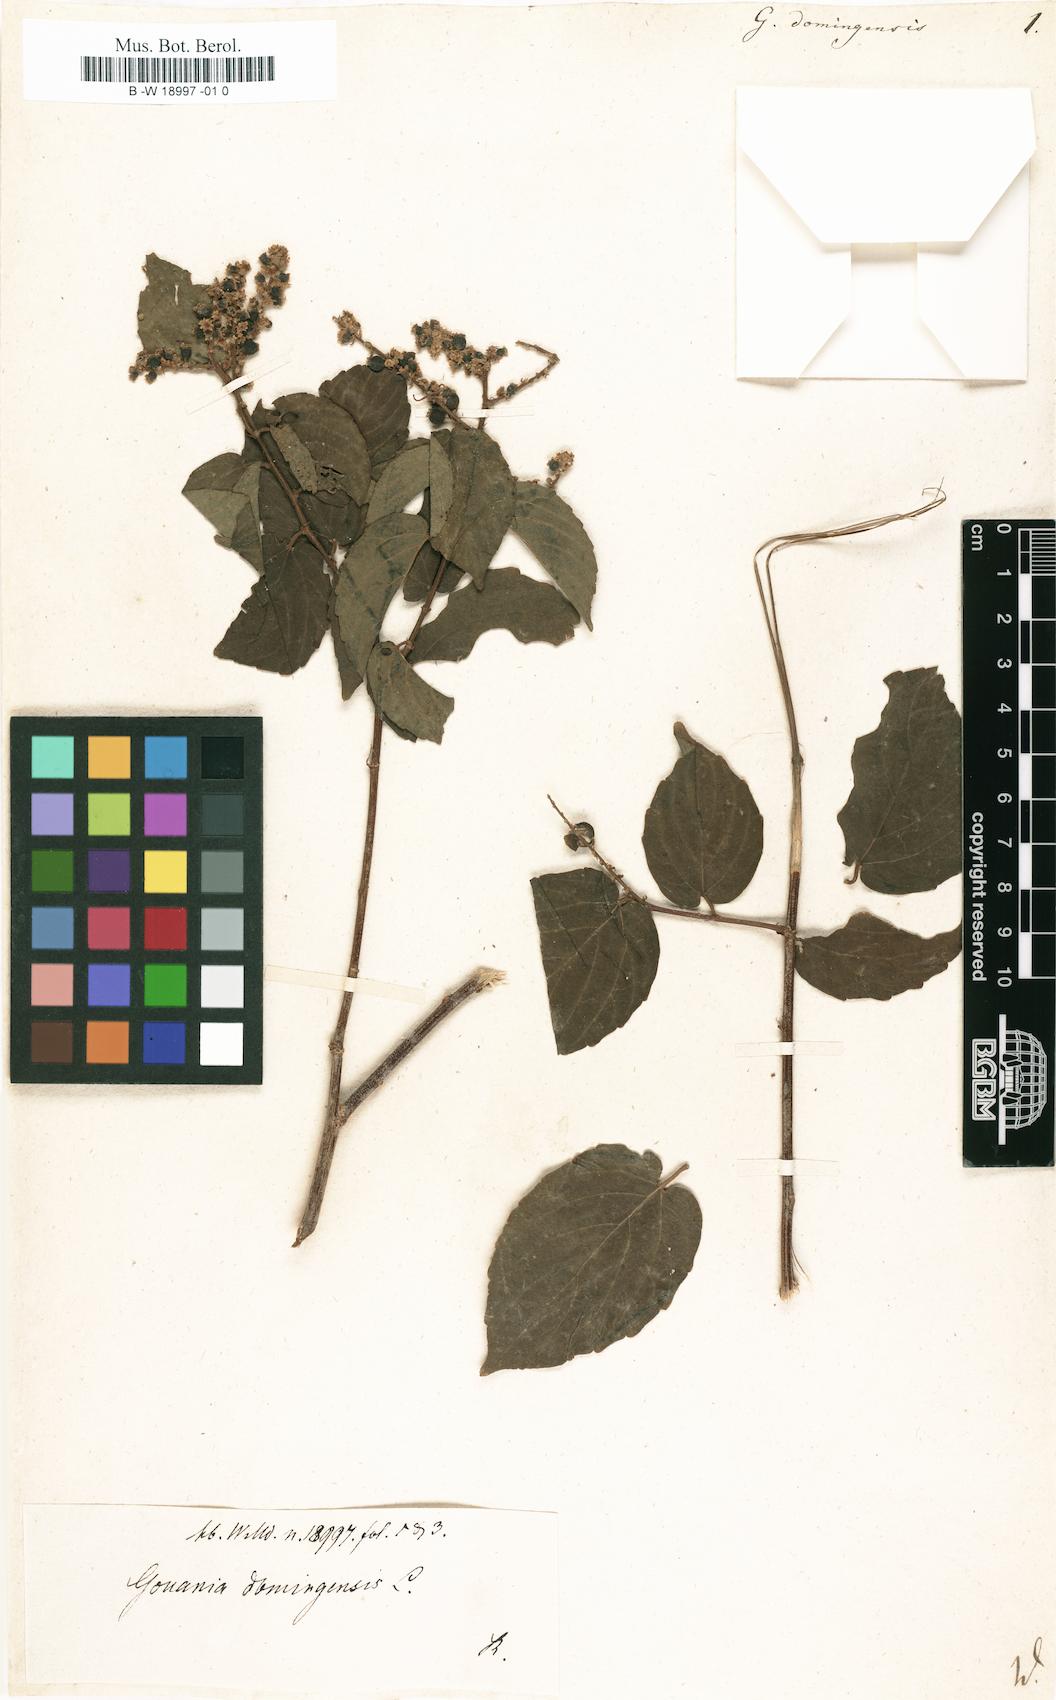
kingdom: Plantae
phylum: Tracheophyta
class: Magnoliopsida
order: Rosales
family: Rhamnaceae
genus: Gouania
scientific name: Gouania striata
